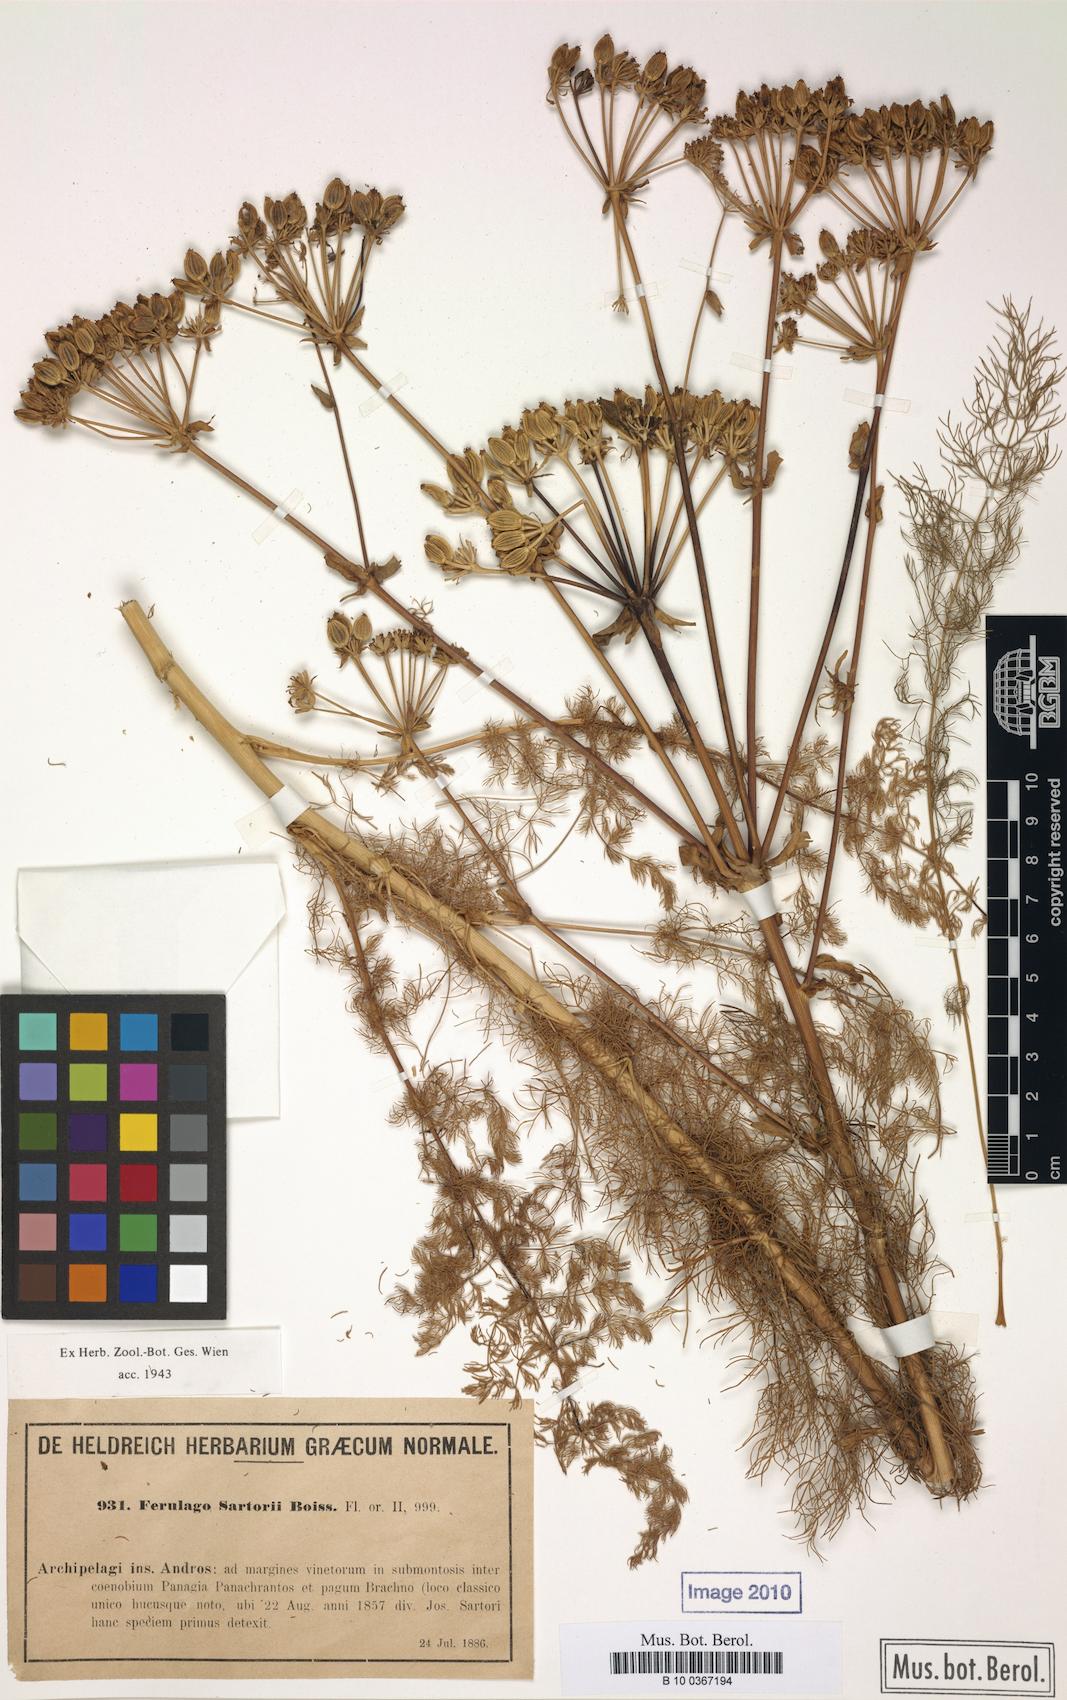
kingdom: Plantae
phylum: Tracheophyta
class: Magnoliopsida
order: Apiales
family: Apiaceae
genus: Ferulago
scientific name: Ferulago sartorii
